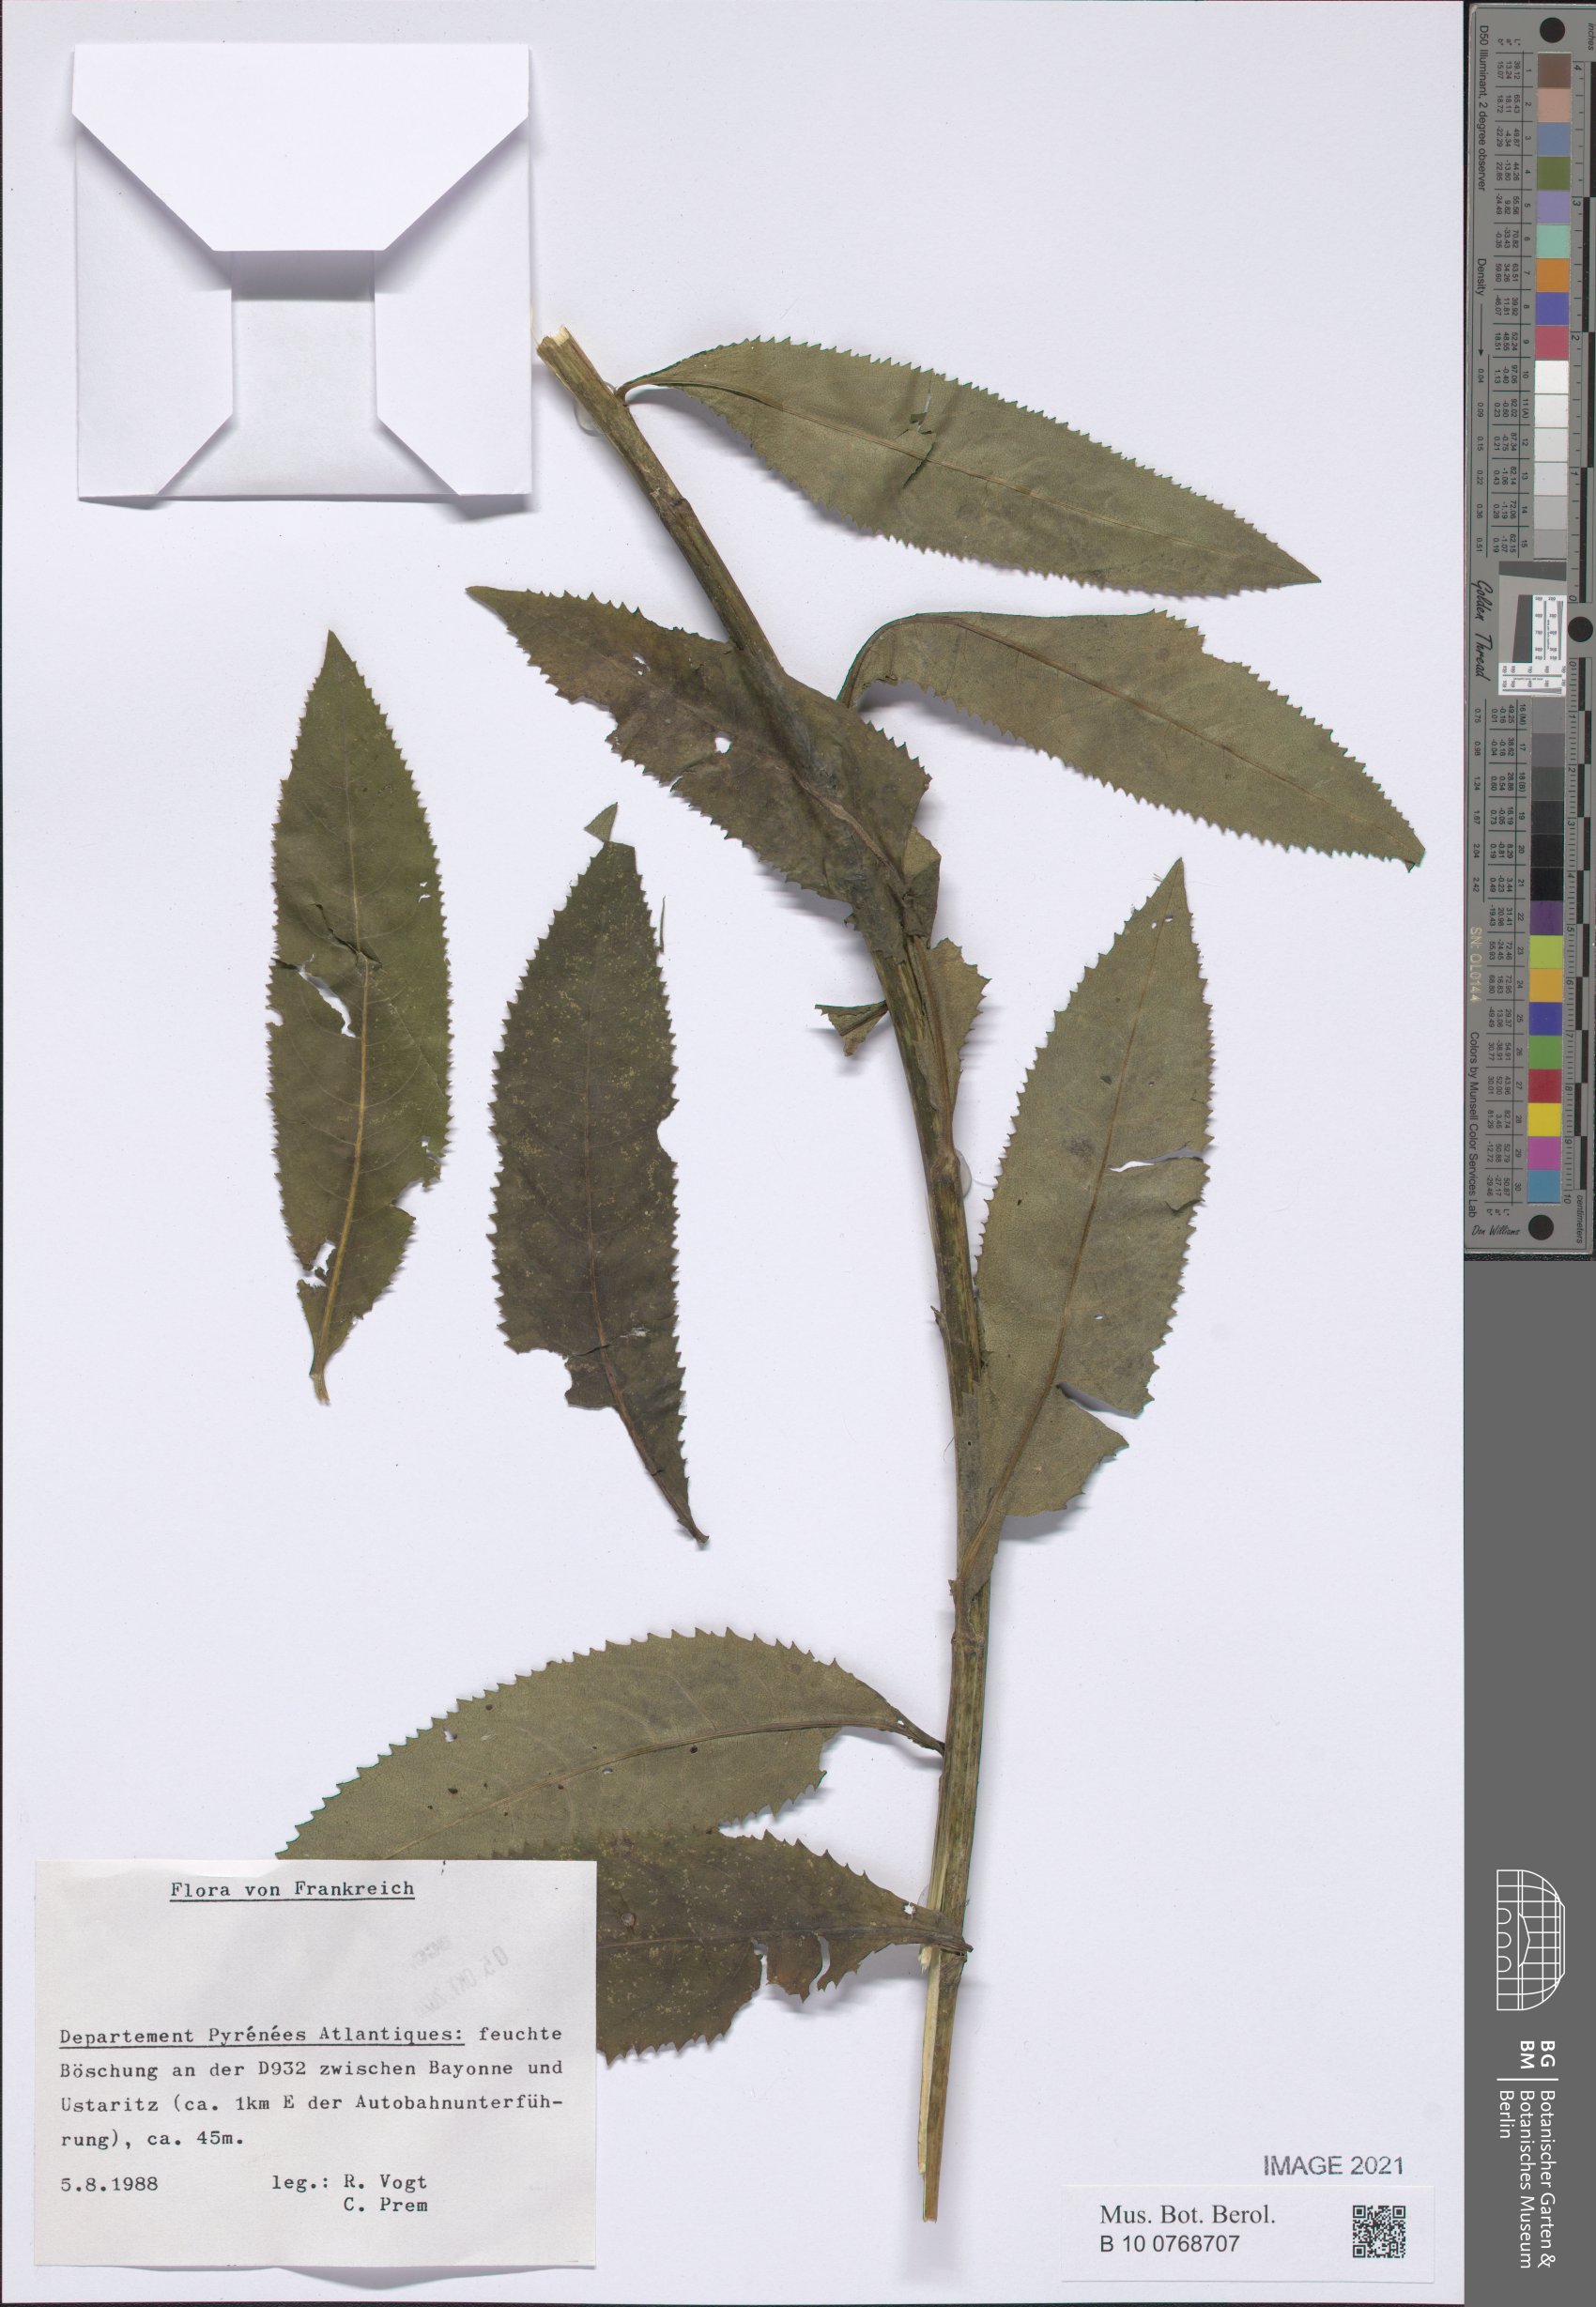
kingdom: Plantae
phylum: Tracheophyta
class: Magnoliopsida
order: Asterales
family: Asteraceae
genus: Senecio
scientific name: Senecio
